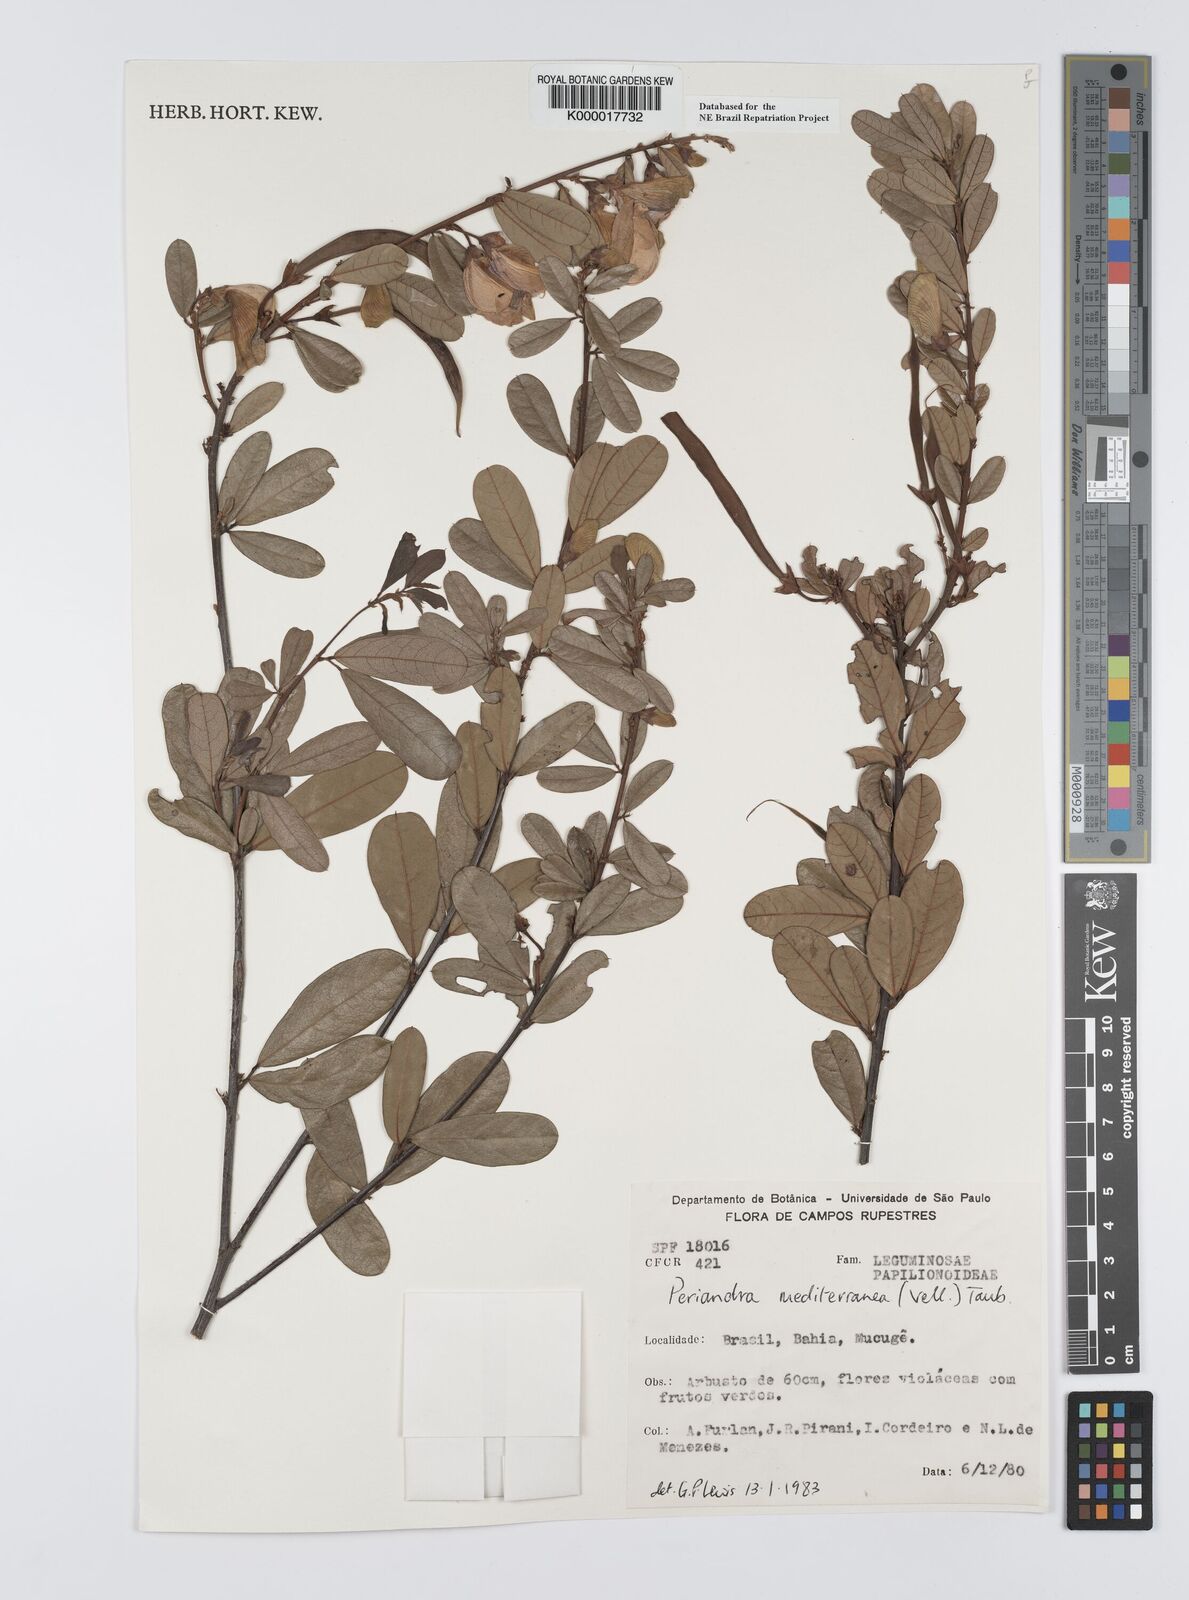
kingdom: Plantae
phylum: Tracheophyta
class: Magnoliopsida
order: Fabales
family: Fabaceae
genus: Periandra
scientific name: Periandra mediterranea
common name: Brazilian licorice
